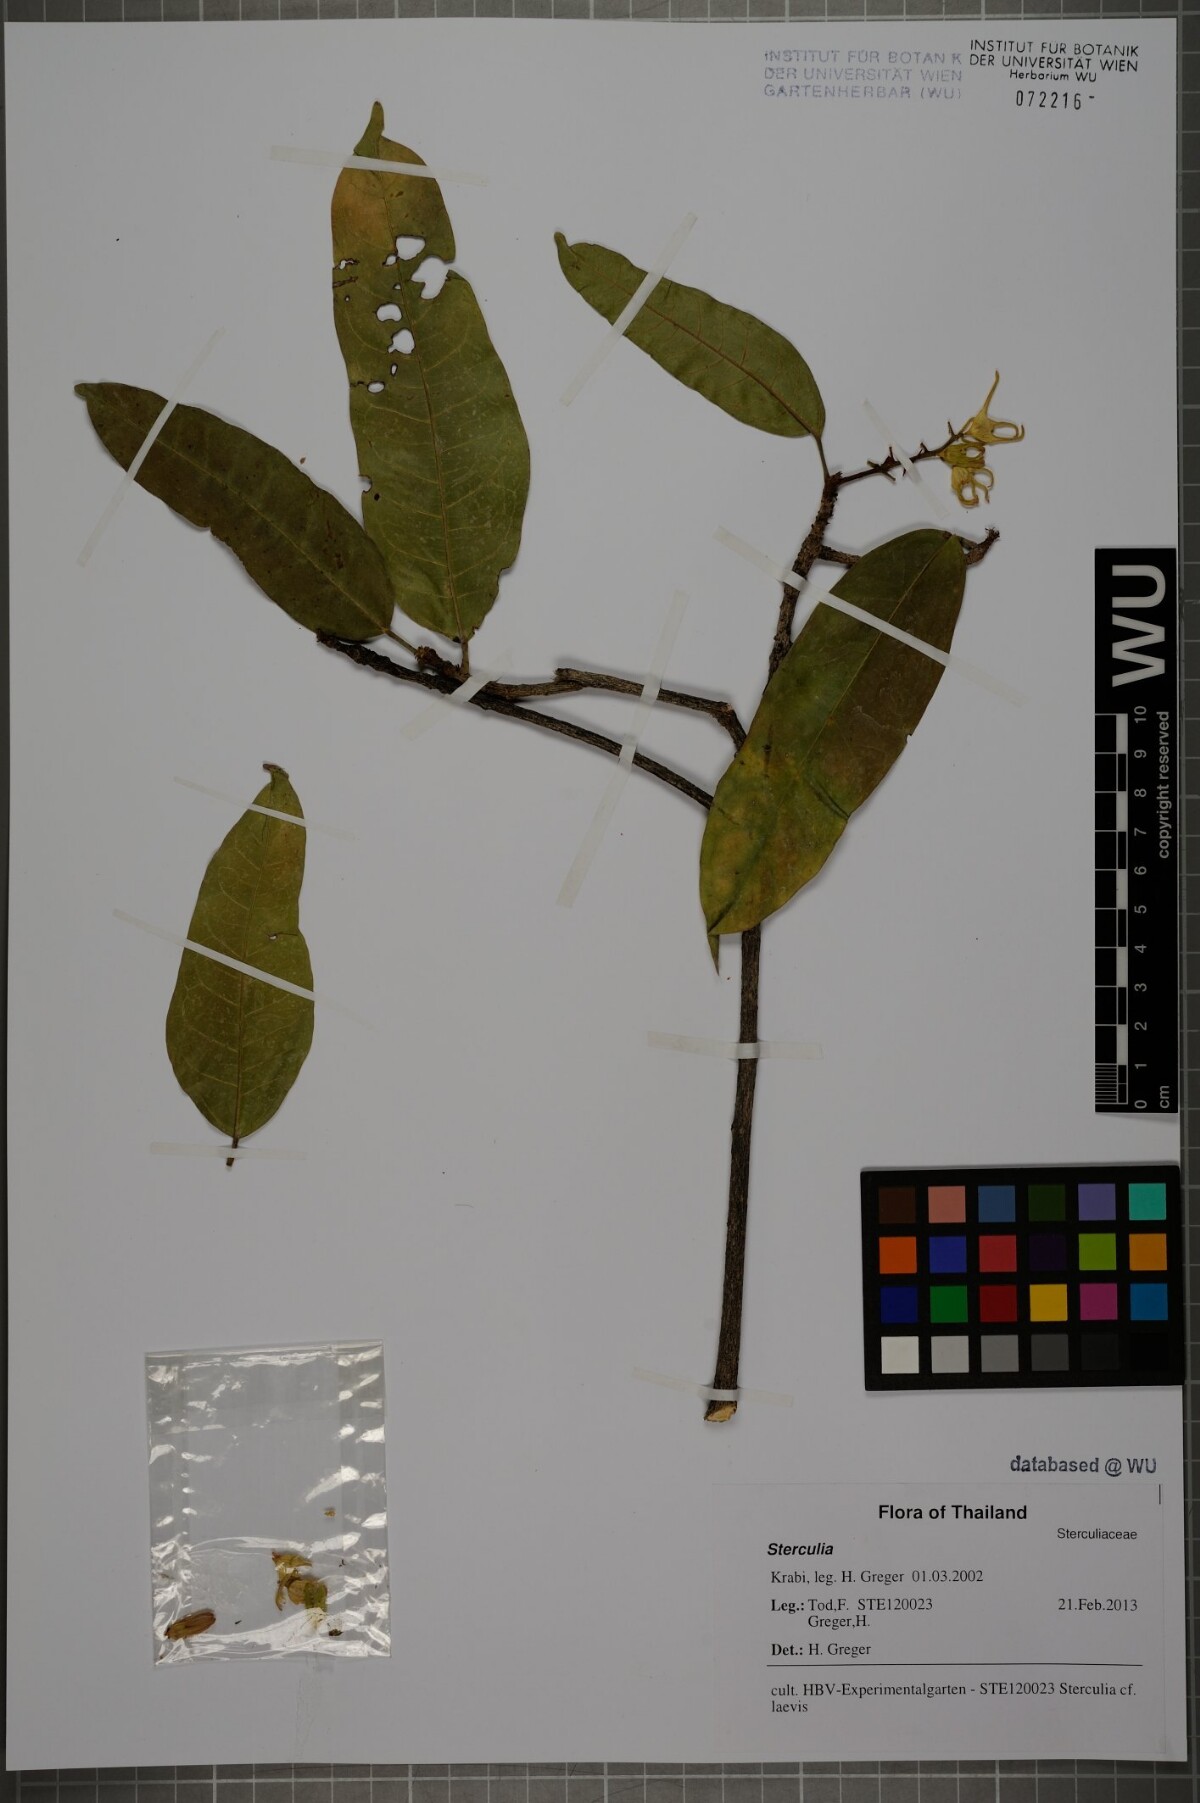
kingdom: Plantae
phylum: Tracheophyta
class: Magnoliopsida
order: Malvales
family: Malvaceae
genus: Sterculia
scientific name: Sterculia lanceolata
